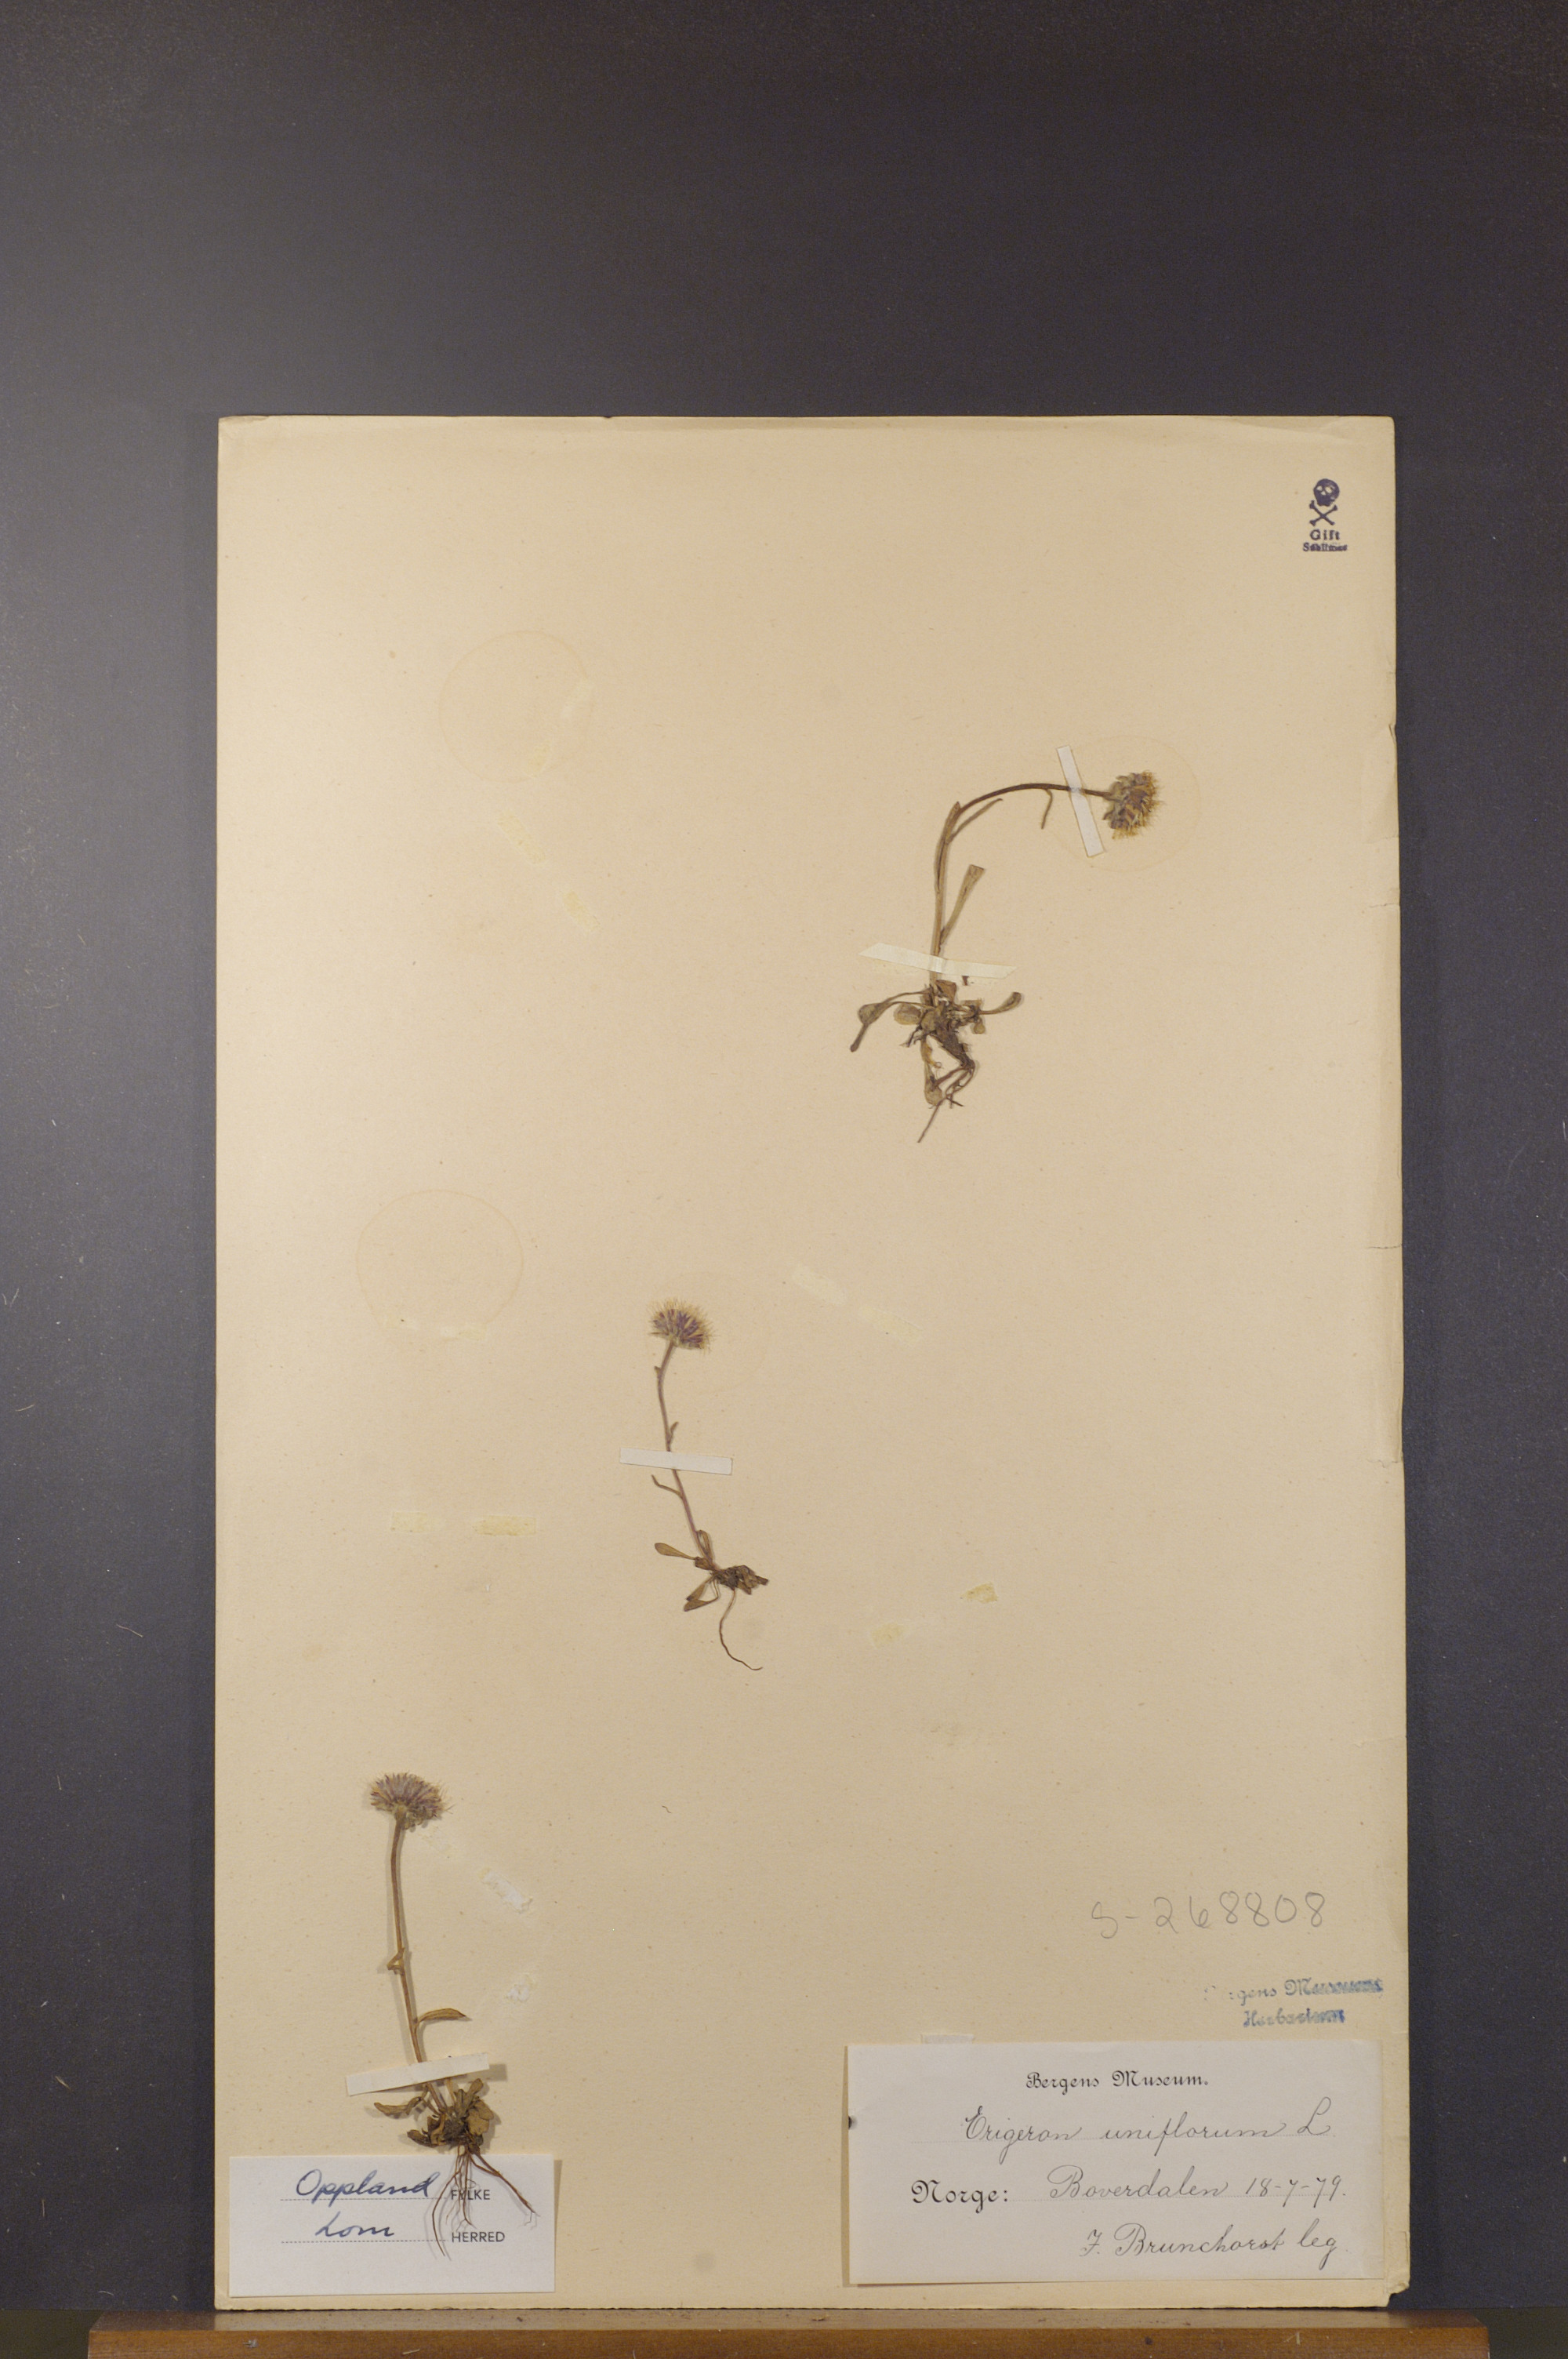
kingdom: Plantae
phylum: Tracheophyta
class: Magnoliopsida
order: Asterales
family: Asteraceae
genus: Erigeron
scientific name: Erigeron uniflorus
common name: Northern daisy
